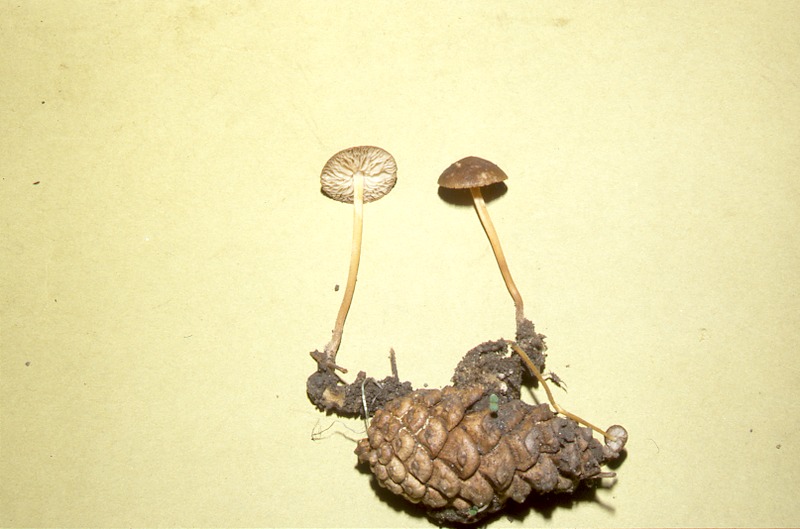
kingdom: Plantae
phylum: Tracheophyta
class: Pinopsida
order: Pinales
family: Pinaceae
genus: Pinus
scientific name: Pinus nigra
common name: Austrian pine
